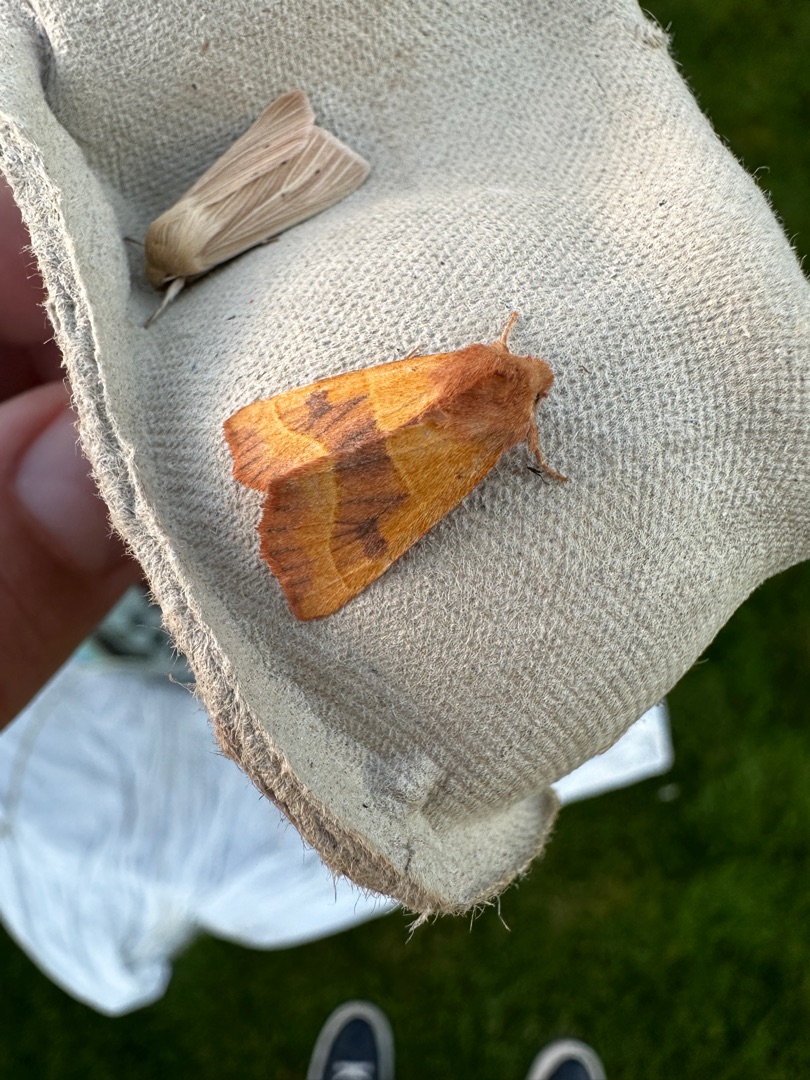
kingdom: Animalia
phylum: Arthropoda
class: Insecta
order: Lepidoptera
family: Noctuidae
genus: Atethmia
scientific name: Atethmia centrago
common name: Aske-septemberugle
